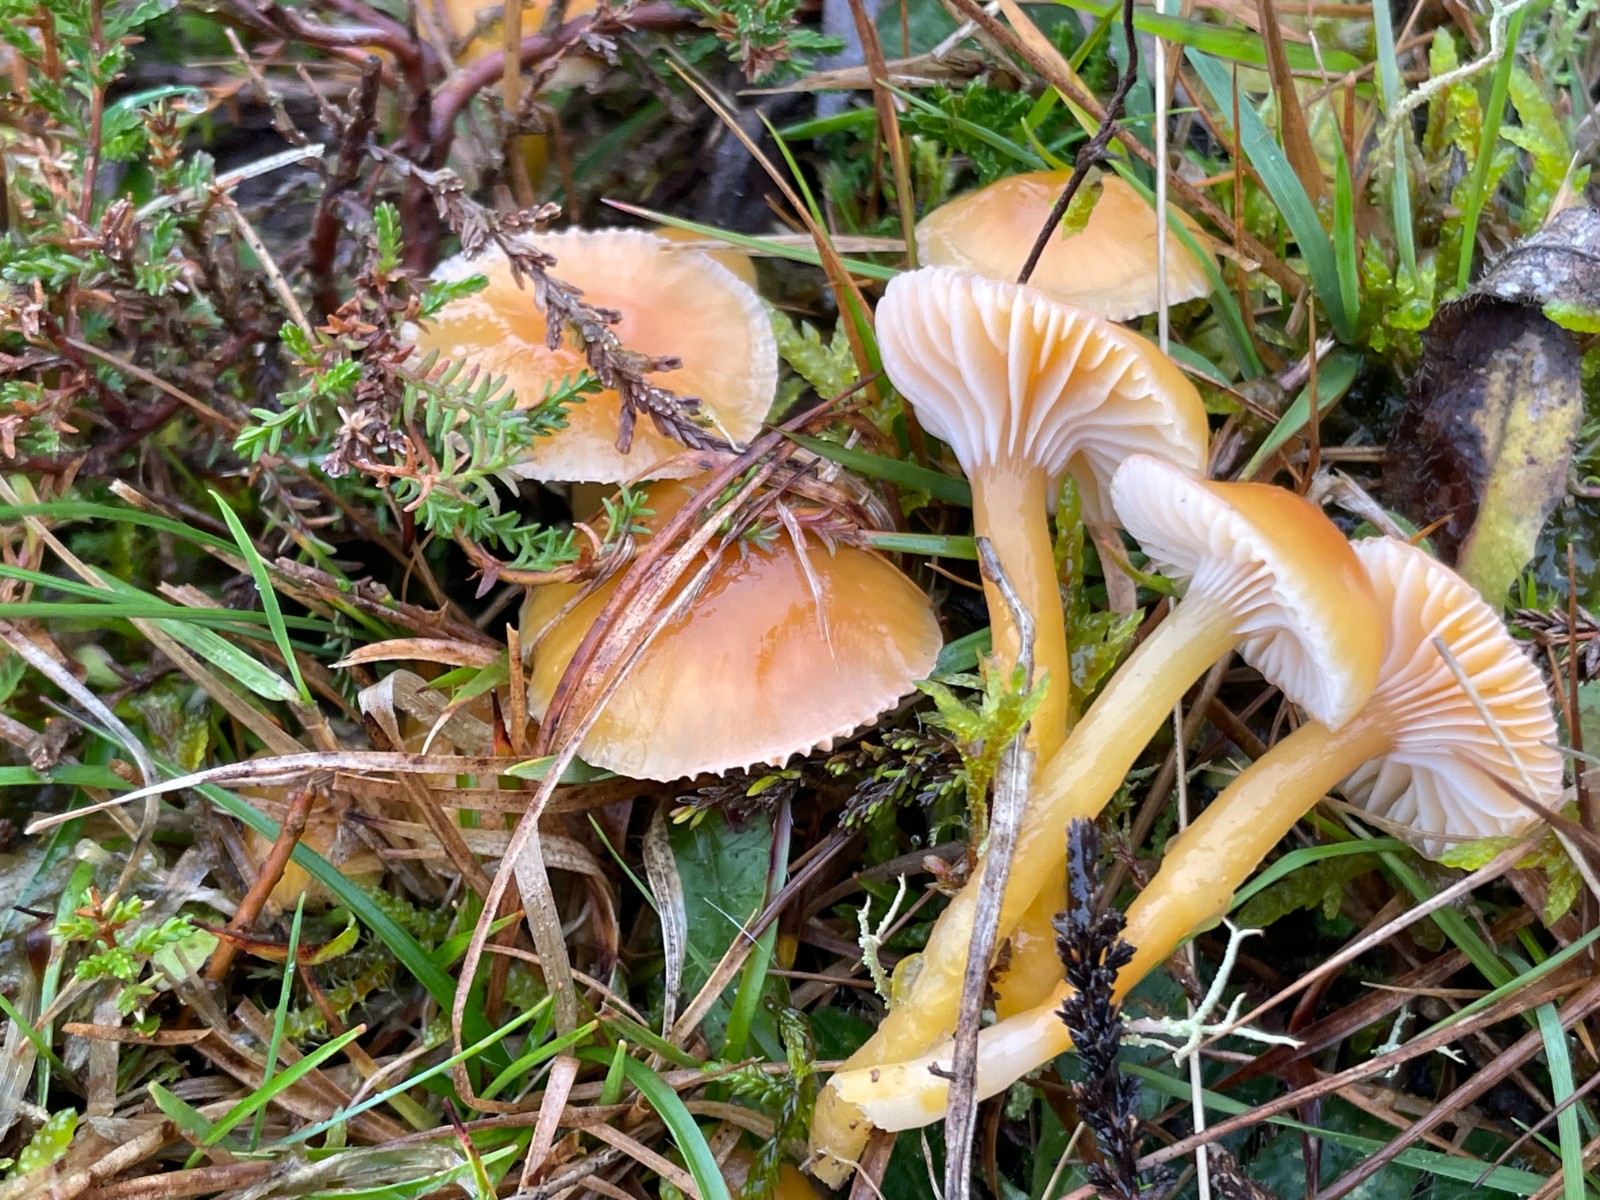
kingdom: Fungi
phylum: Basidiomycota
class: Agaricomycetes
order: Agaricales
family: Hygrophoraceae
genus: Gliophorus
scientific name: Gliophorus laetus
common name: brusk-vokshat
